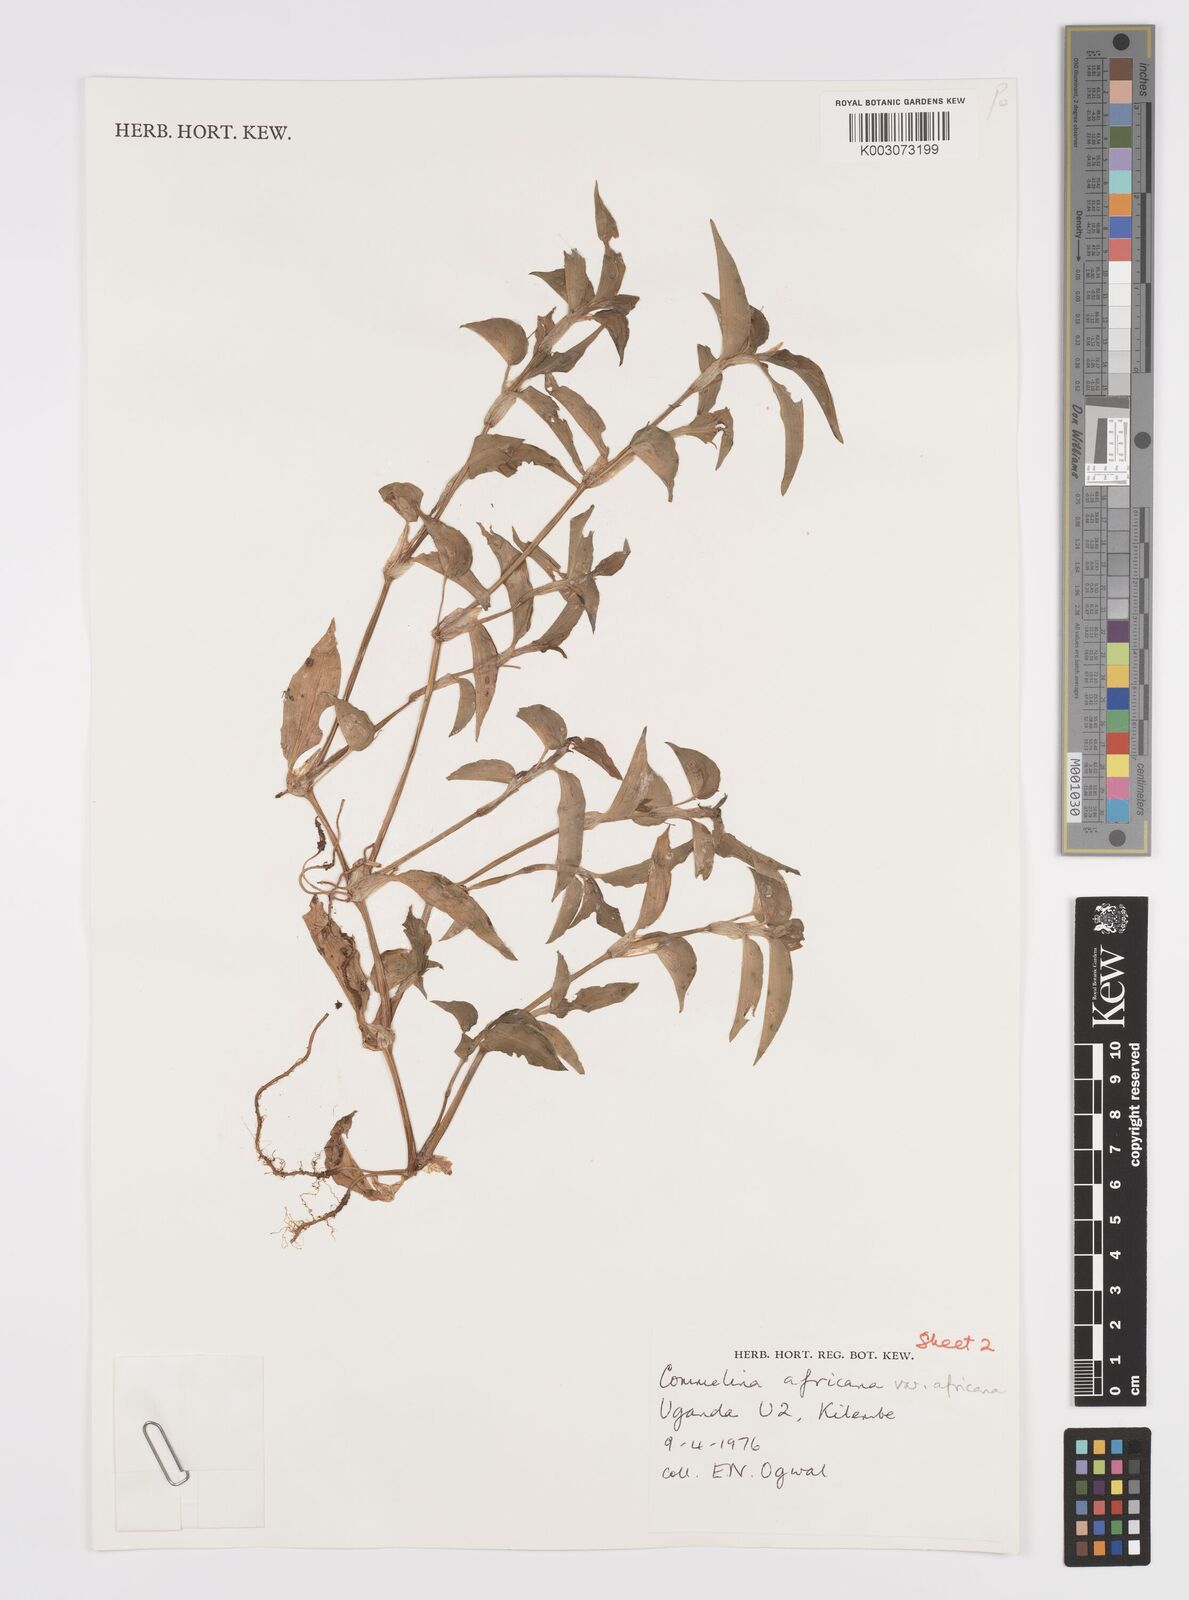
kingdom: Plantae
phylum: Tracheophyta
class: Liliopsida
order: Commelinales
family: Commelinaceae
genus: Commelina
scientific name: Commelina africana
